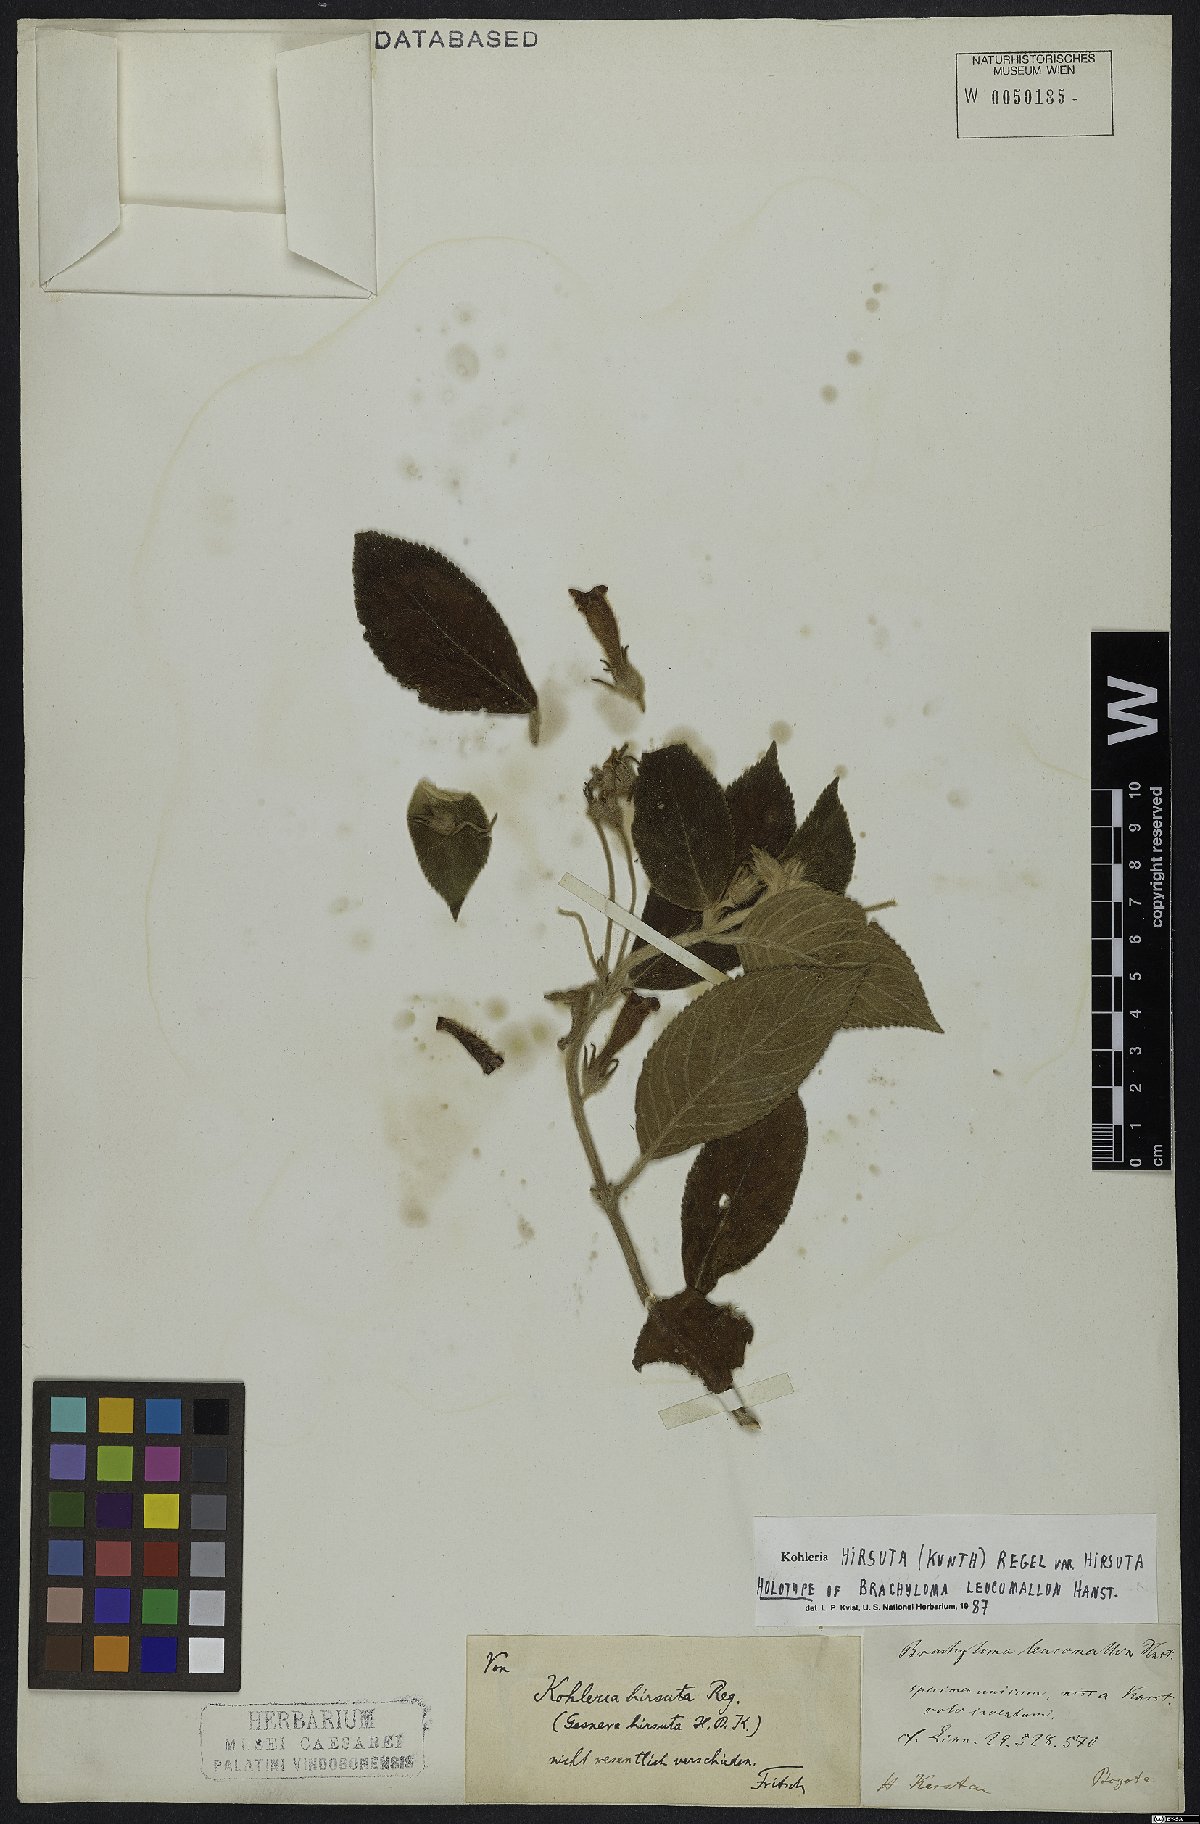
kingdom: Plantae
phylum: Tracheophyta
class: Magnoliopsida
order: Lamiales
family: Gesneriaceae
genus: Kohleria
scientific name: Kohleria hirsuta
